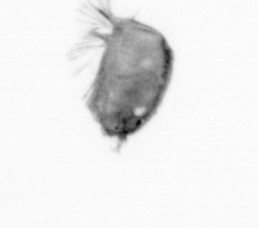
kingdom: Animalia
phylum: Arthropoda
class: Maxillopoda
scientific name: Maxillopoda
